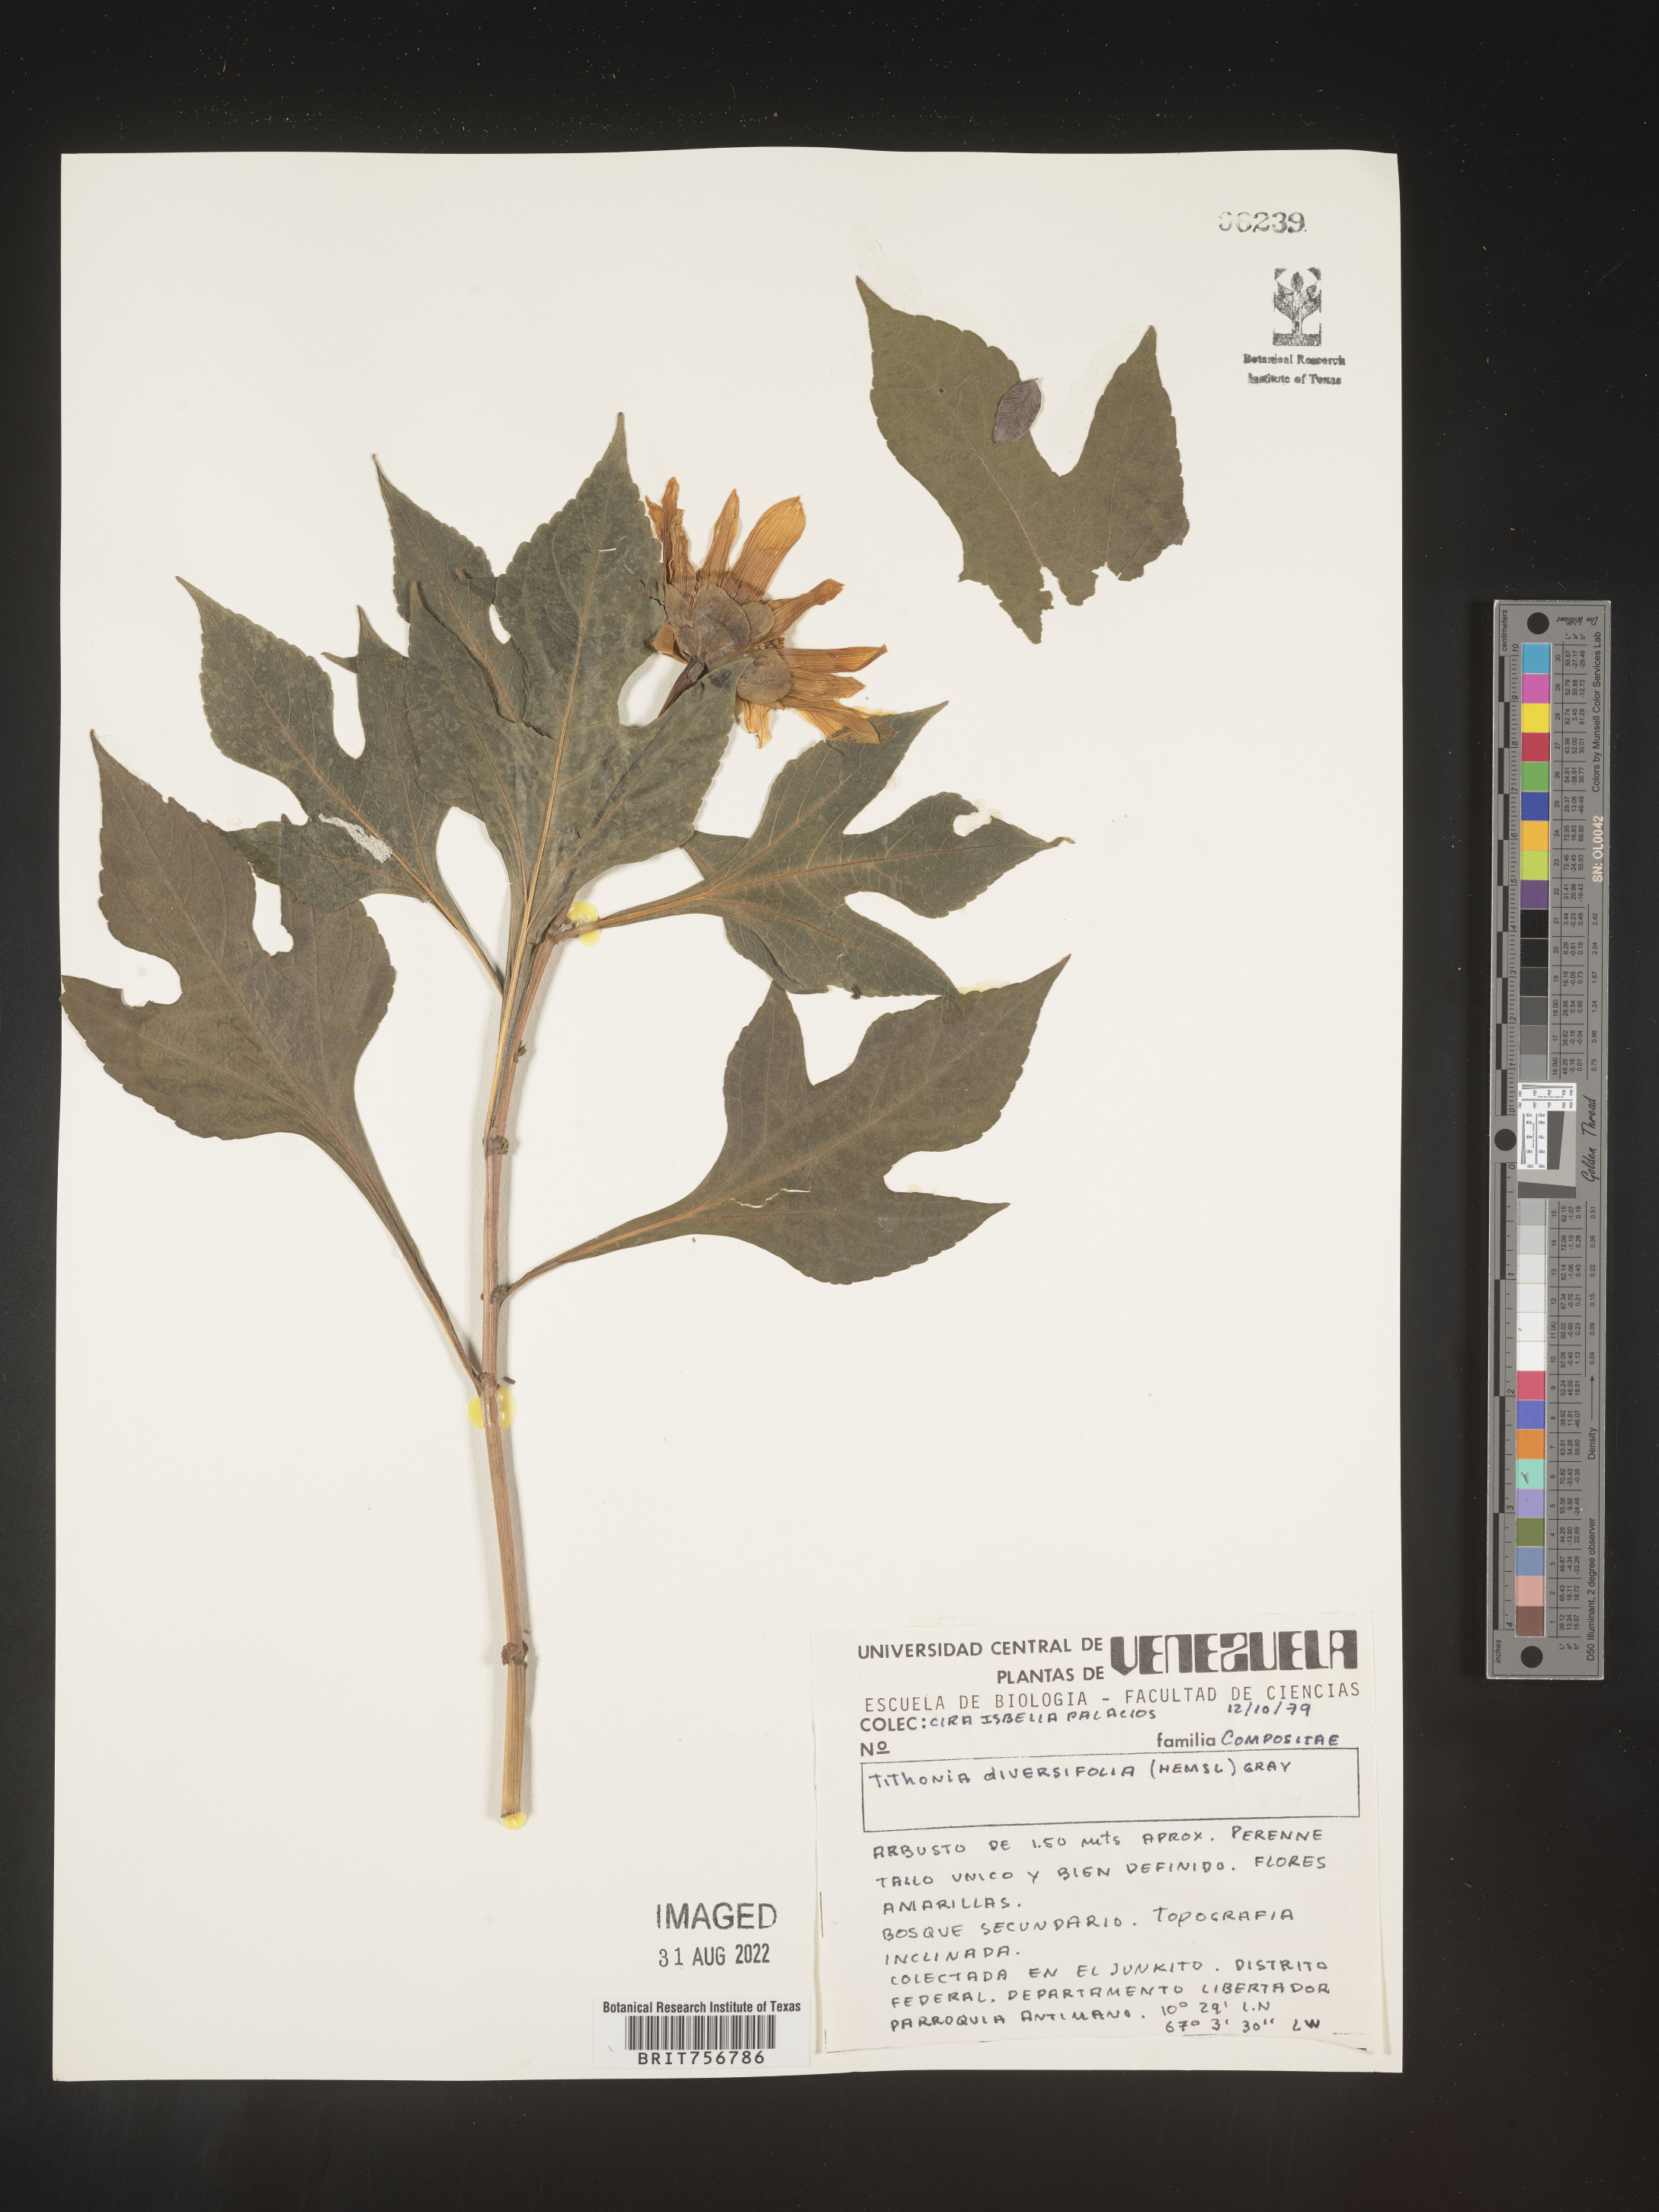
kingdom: Plantae
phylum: Tracheophyta
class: Magnoliopsida
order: Asterales
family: Asteraceae
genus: Tithonia
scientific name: Tithonia
